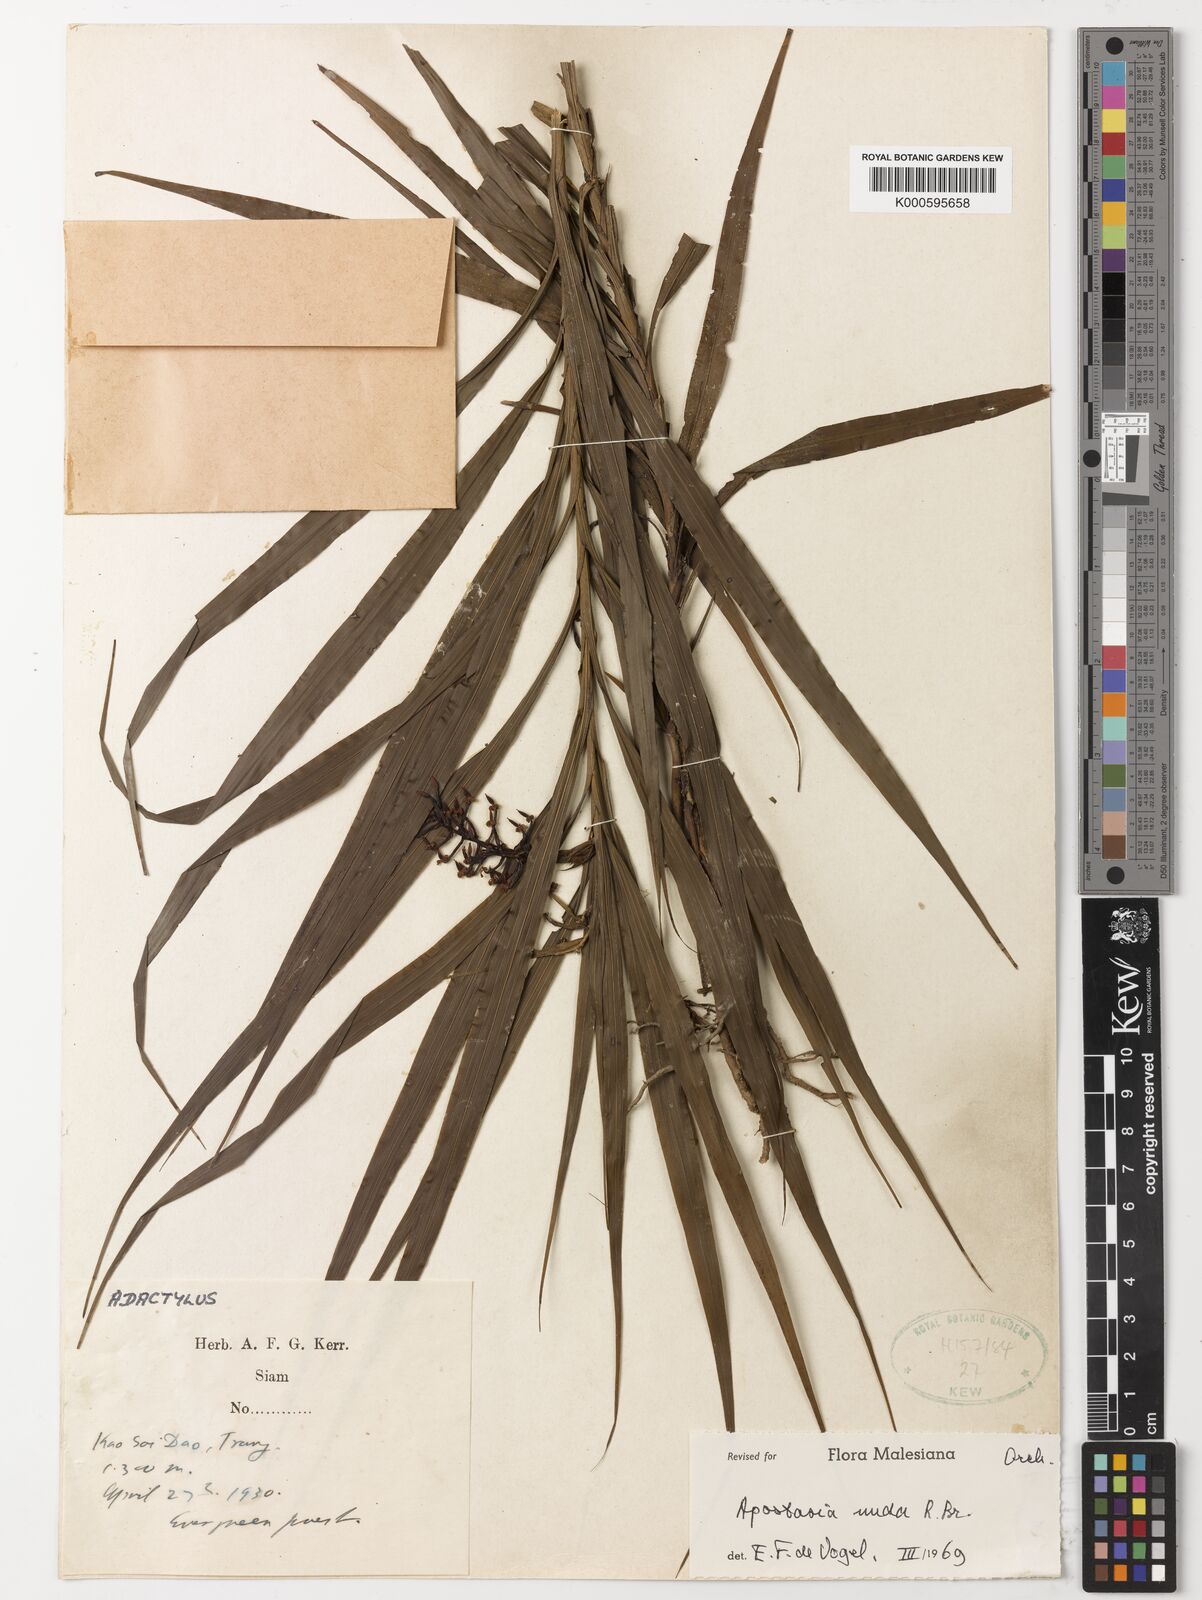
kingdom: Plantae
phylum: Tracheophyta
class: Liliopsida
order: Asparagales
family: Orchidaceae
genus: Apostasia
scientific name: Apostasia nuda
